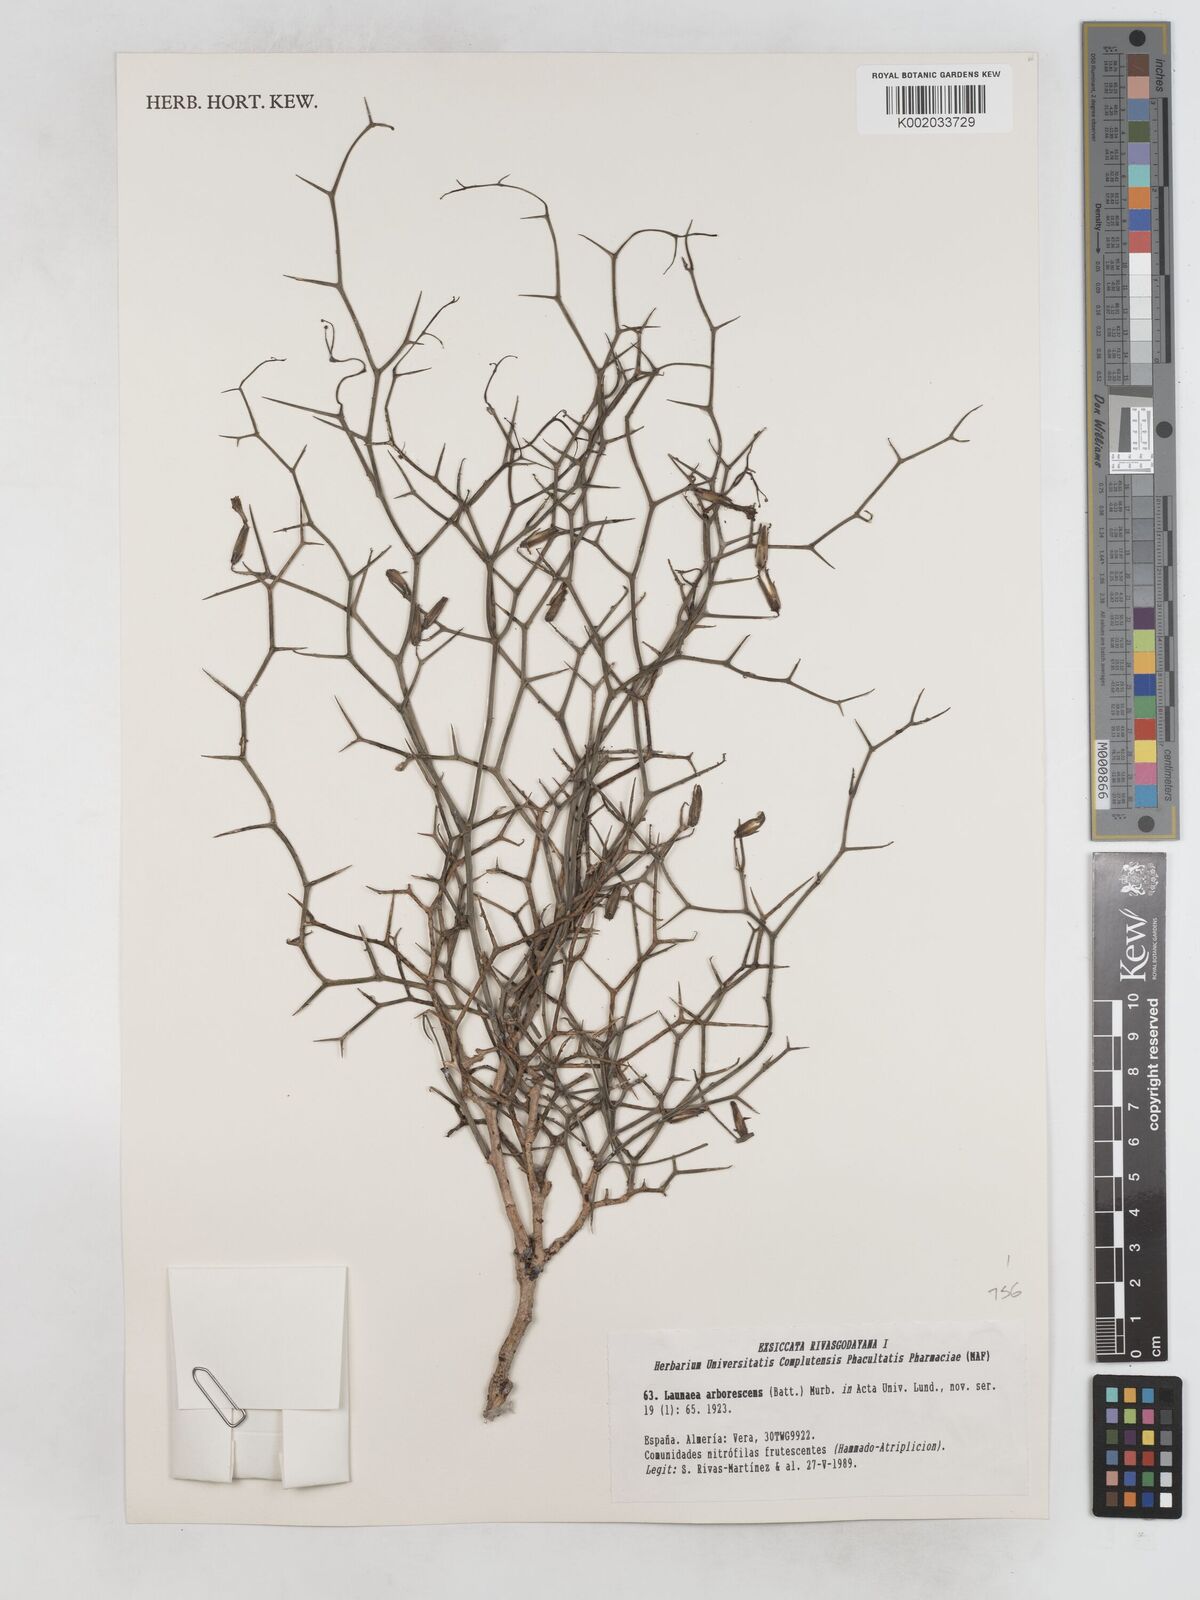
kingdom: Plantae
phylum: Tracheophyta
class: Magnoliopsida
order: Asterales
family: Asteraceae
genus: Launaea
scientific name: Launaea arborescens
